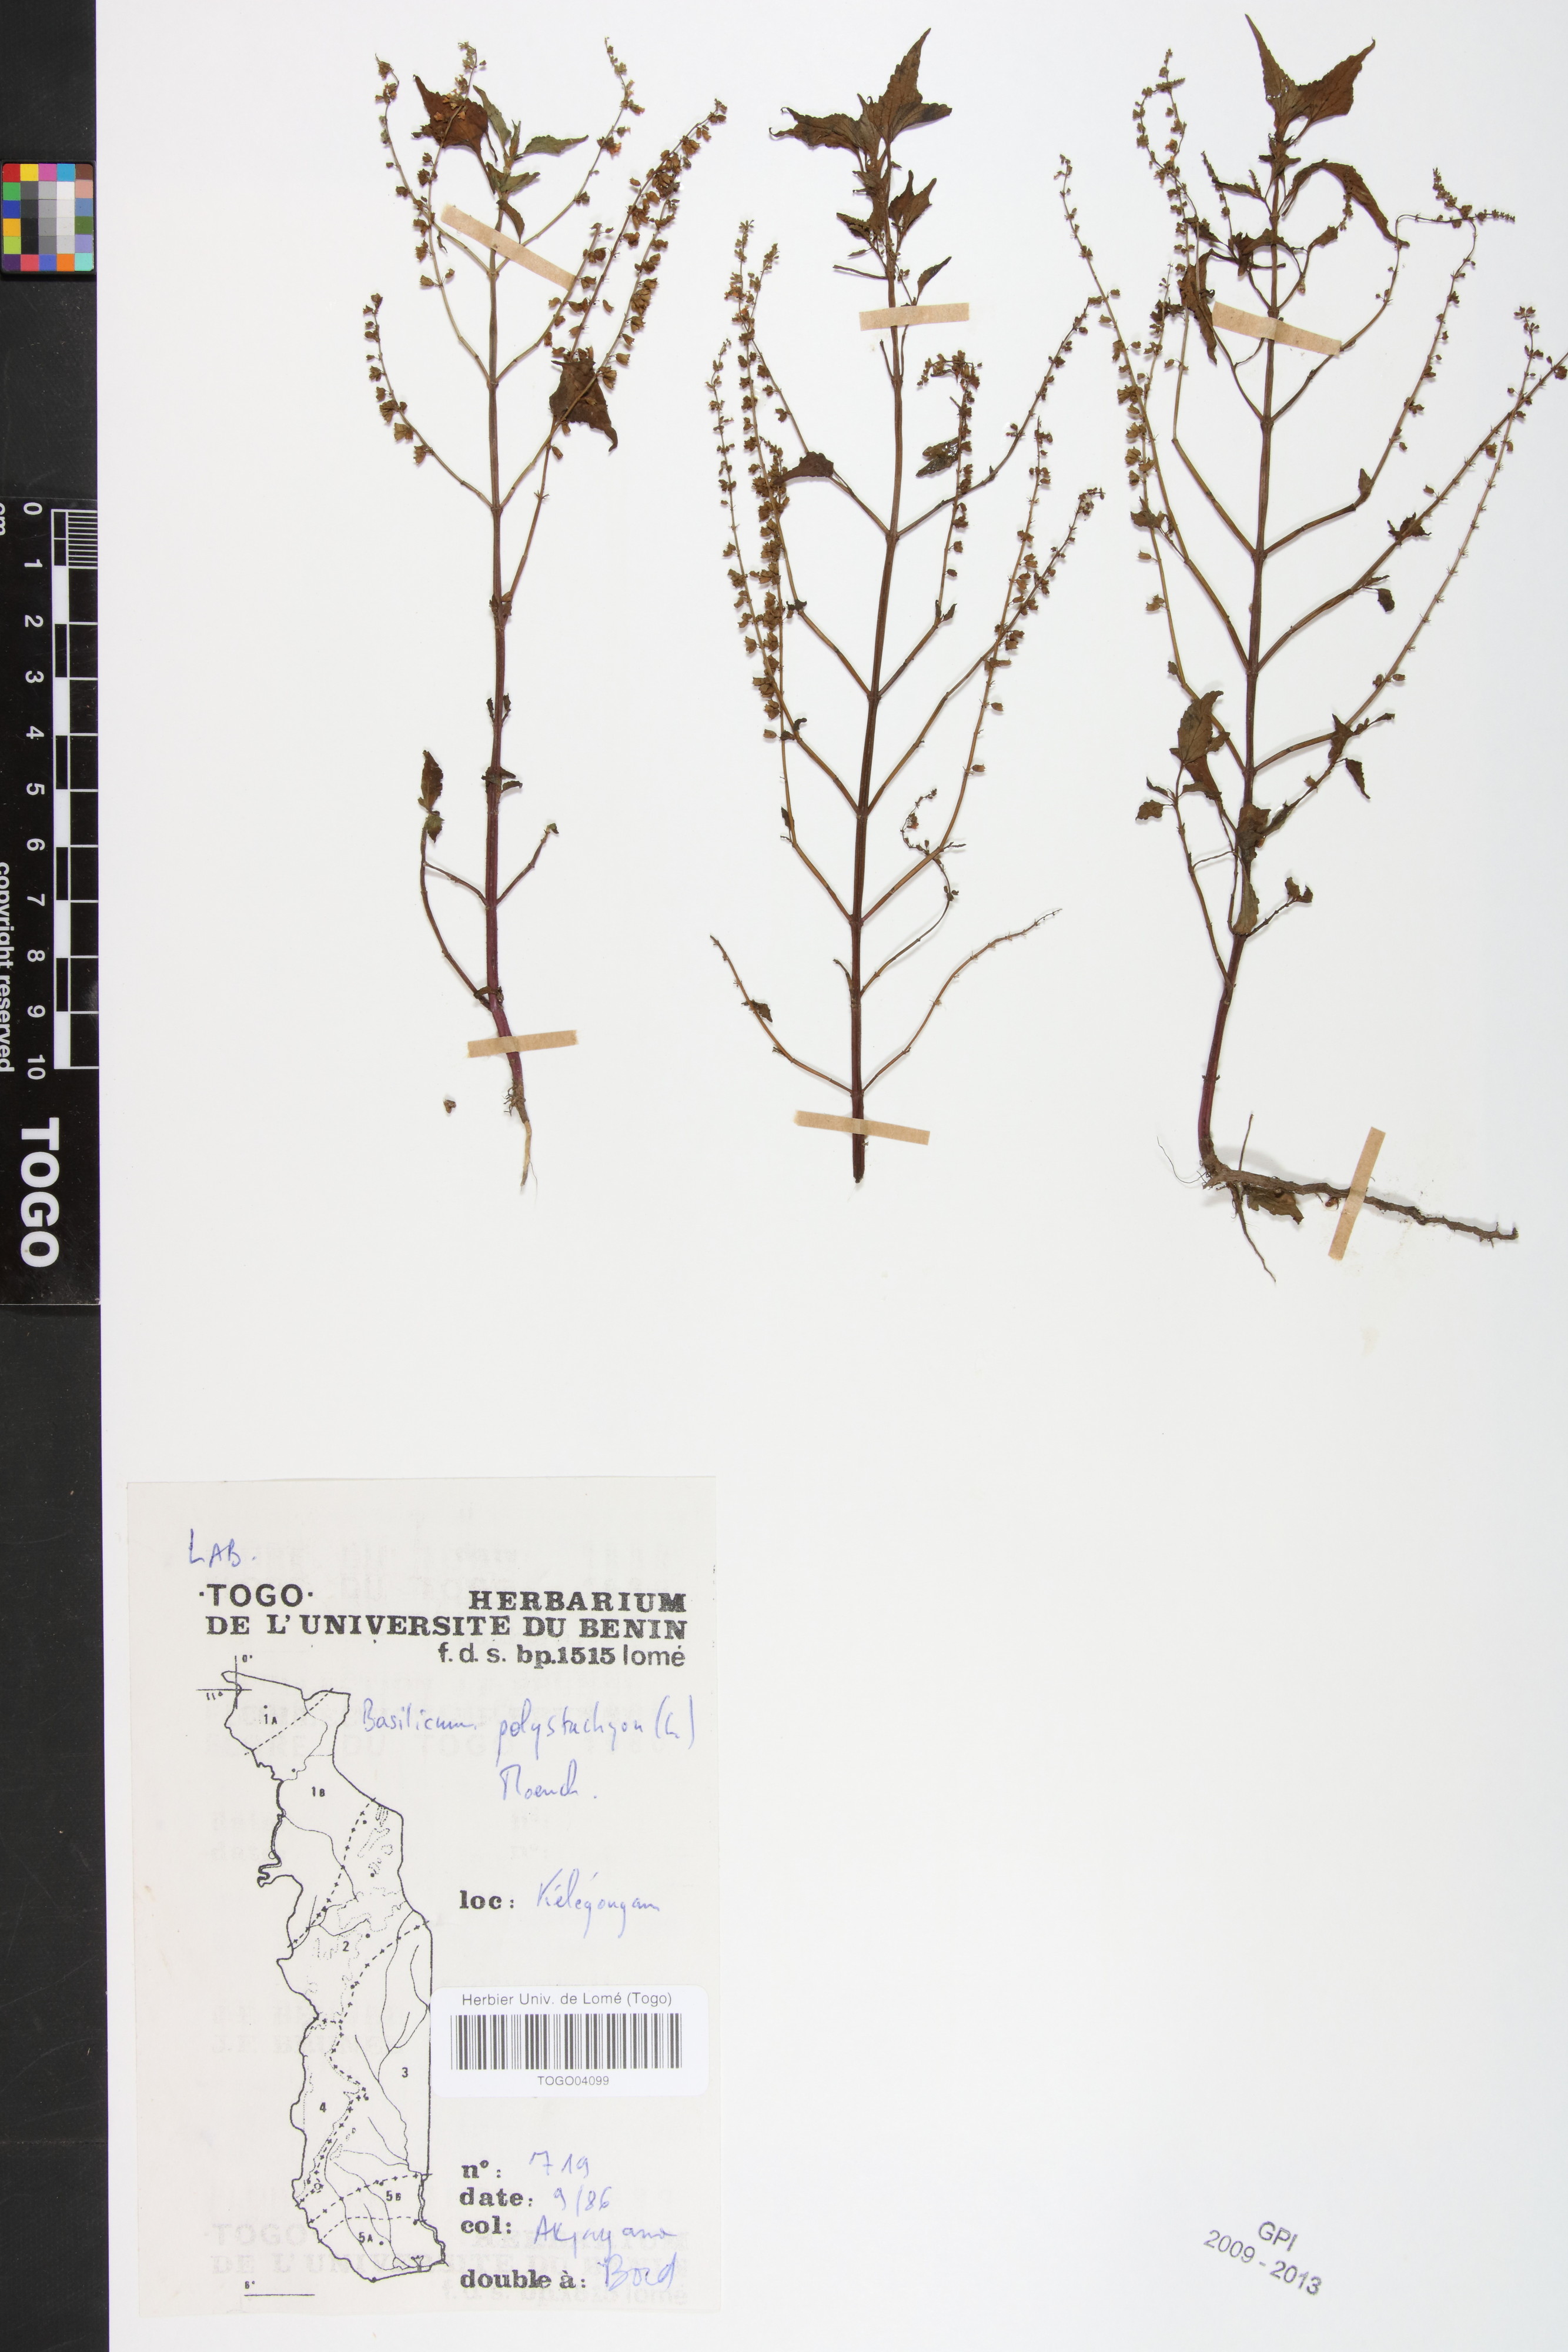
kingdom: Plantae
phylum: Tracheophyta
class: Magnoliopsida
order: Lamiales
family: Lamiaceae
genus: Basilicum
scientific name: Basilicum polystachyon
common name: Musk-basil
